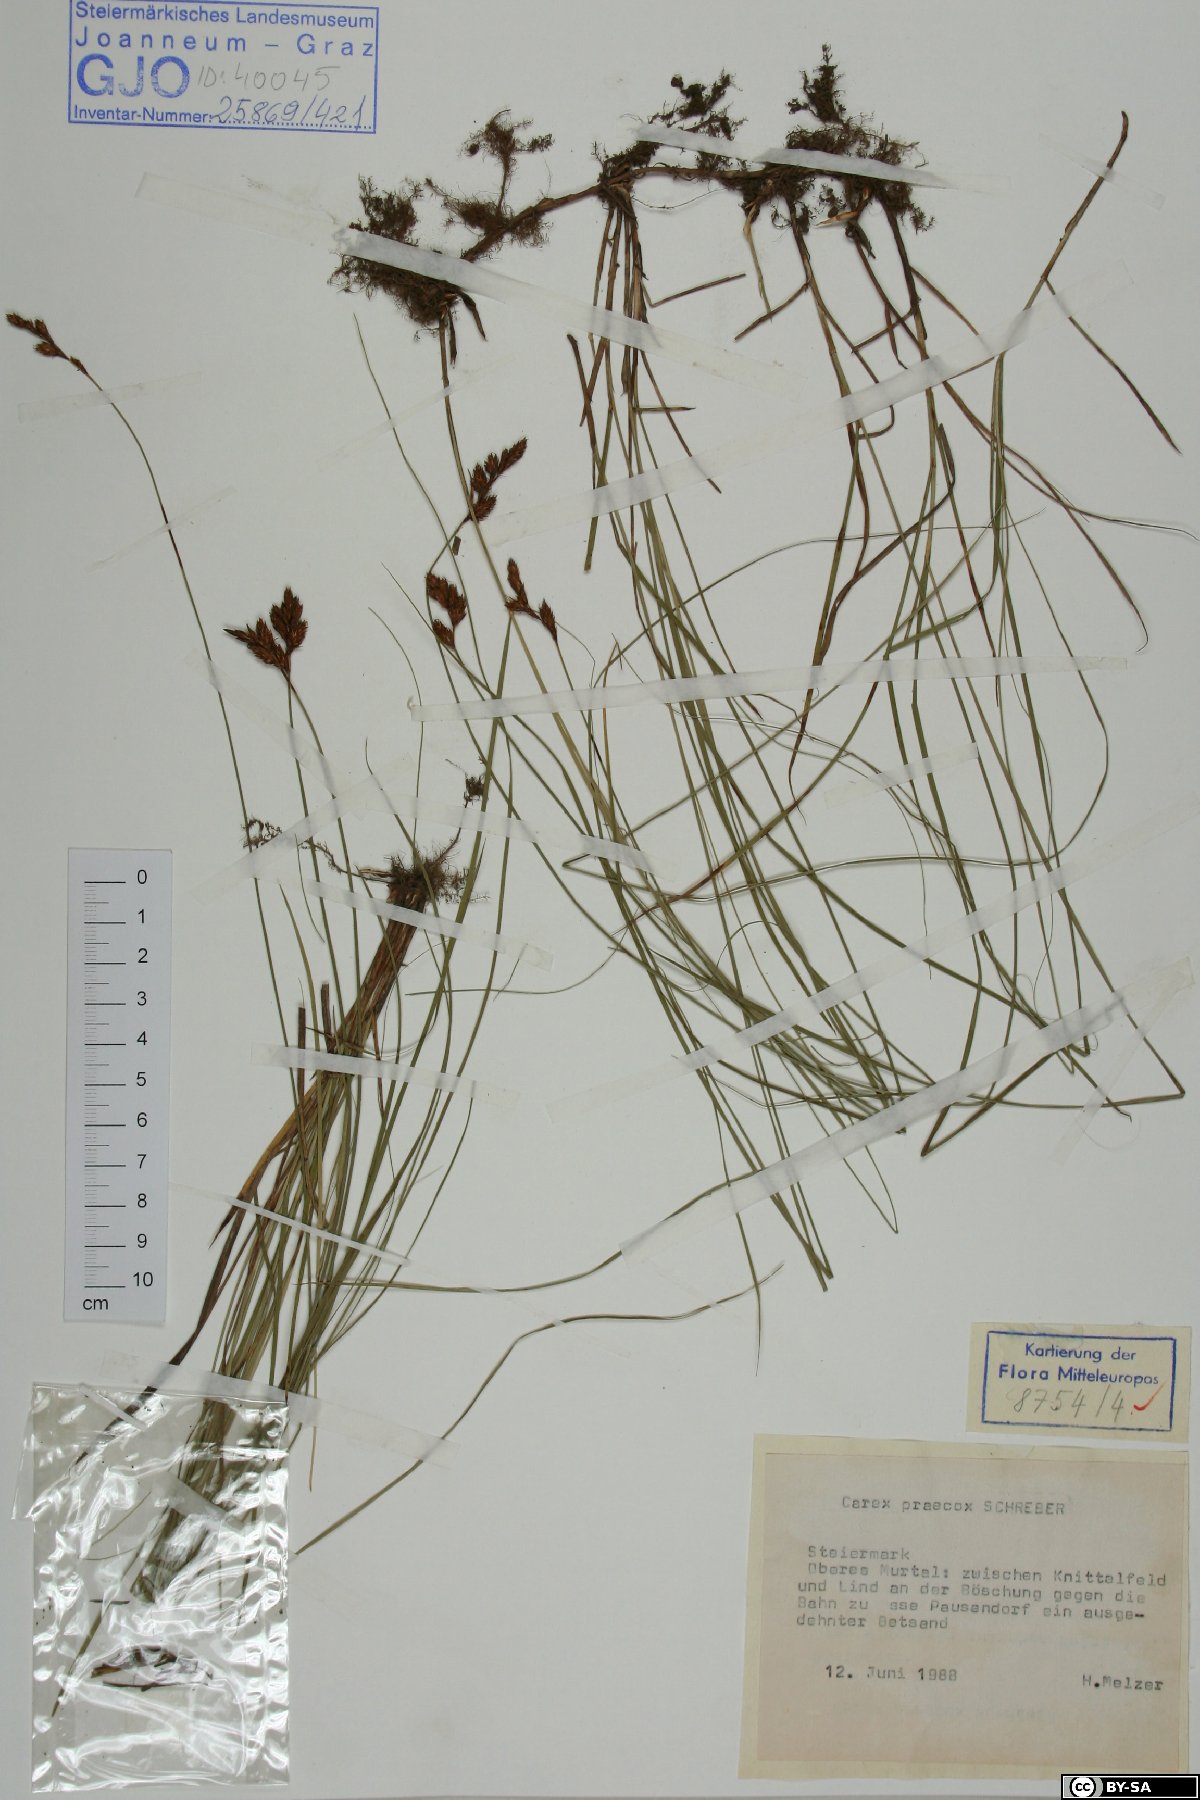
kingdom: Plantae
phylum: Tracheophyta
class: Liliopsida
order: Poales
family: Cyperaceae
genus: Carex
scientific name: Carex praecox
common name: Early sedge
